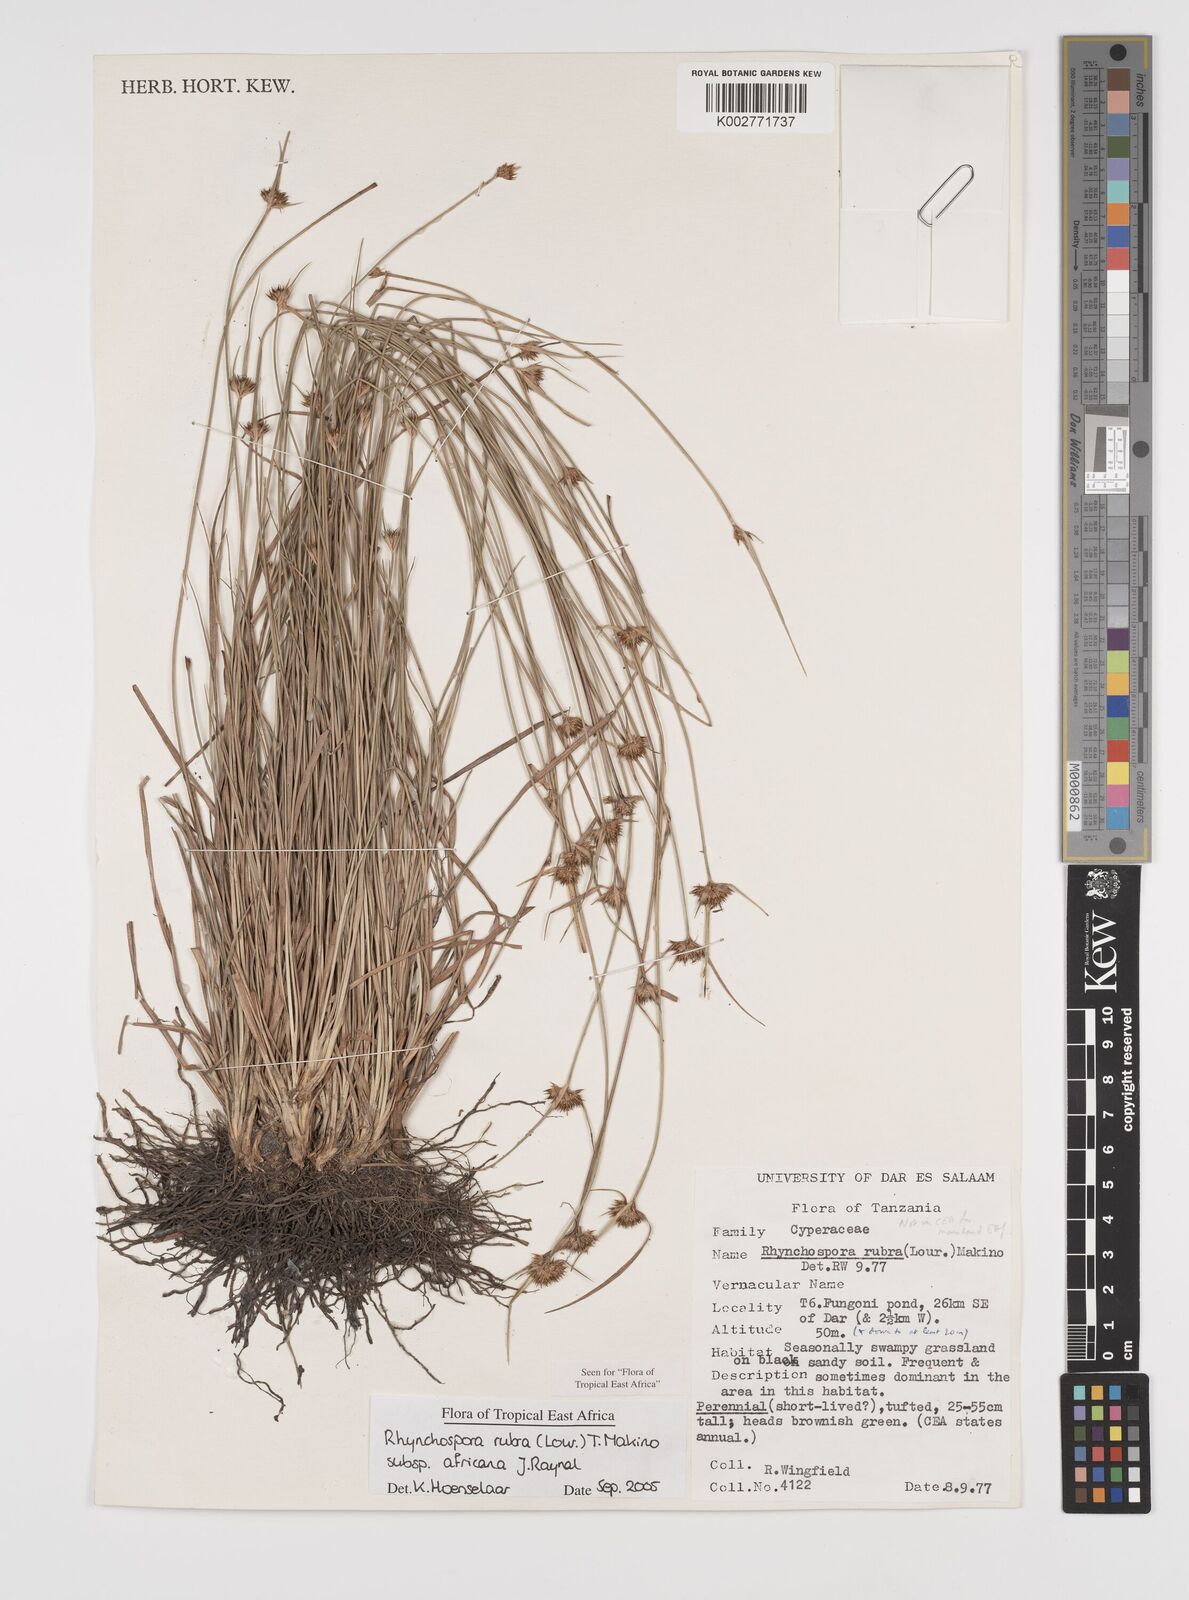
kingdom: Plantae
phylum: Tracheophyta
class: Liliopsida
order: Poales
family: Cyperaceae
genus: Rhynchospora
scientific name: Rhynchospora rubra
